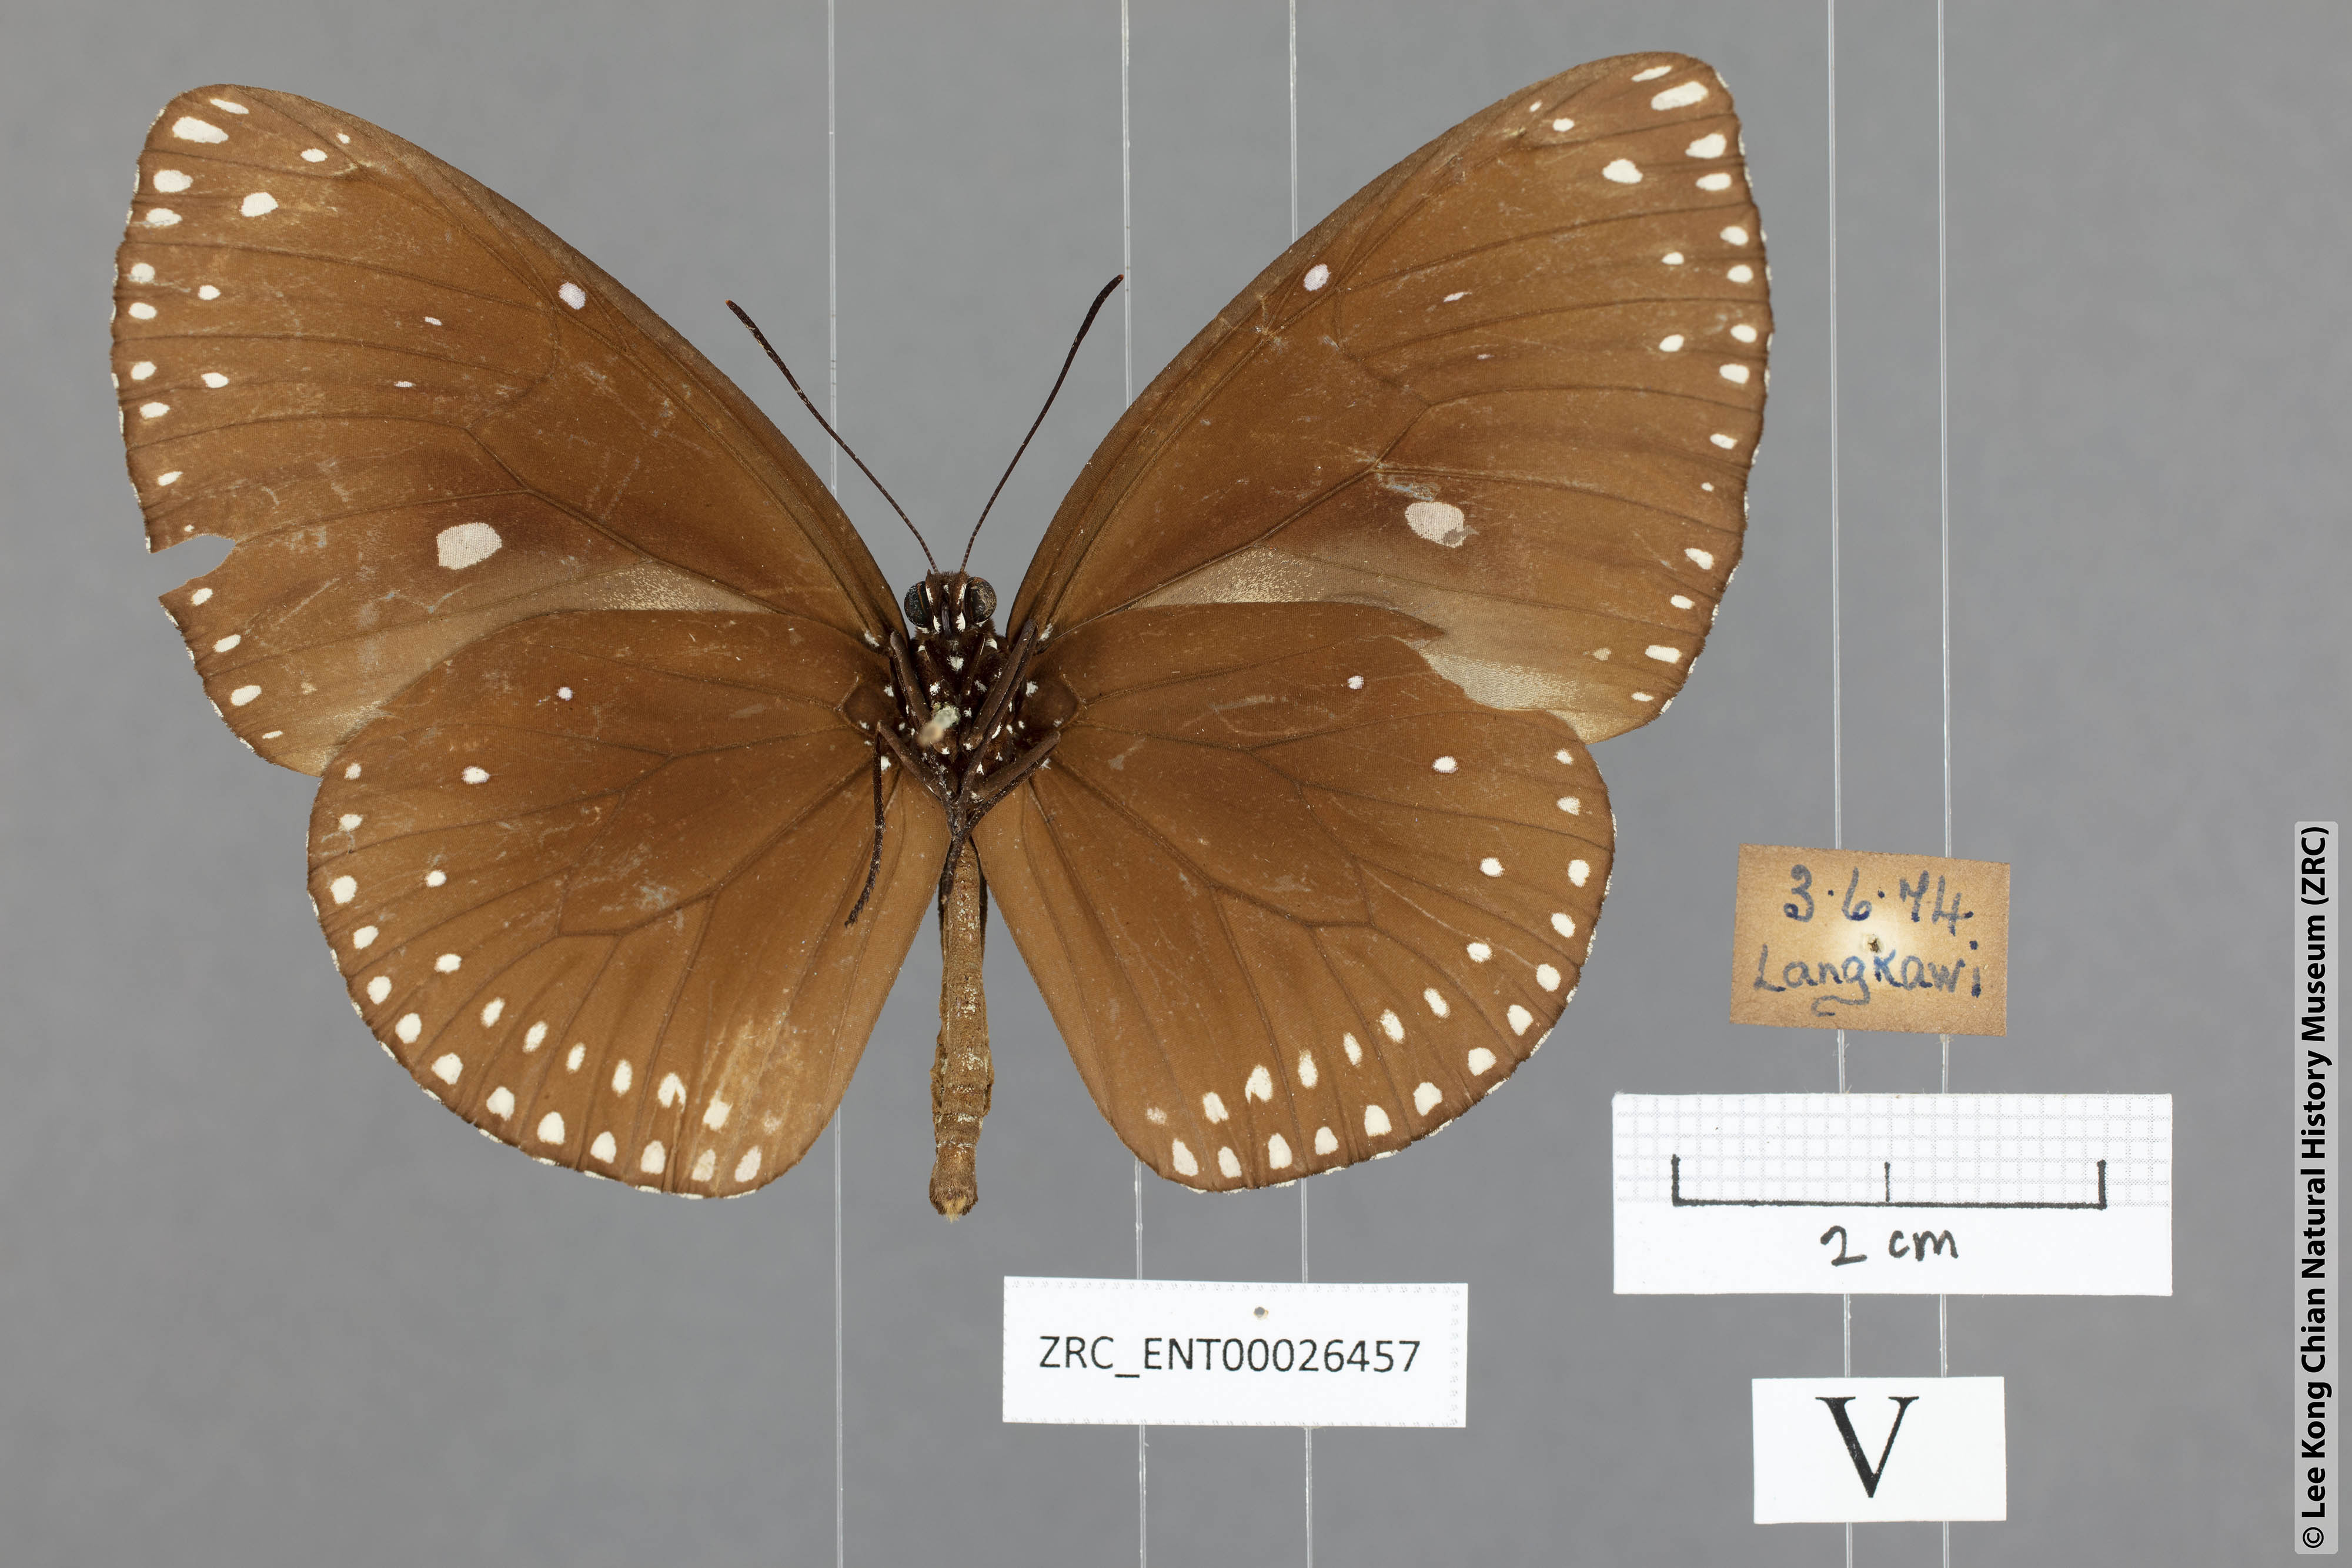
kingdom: Animalia
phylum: Arthropoda
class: Insecta
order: Lepidoptera
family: Nymphalidae
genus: Euploea
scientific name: Euploea klugii
